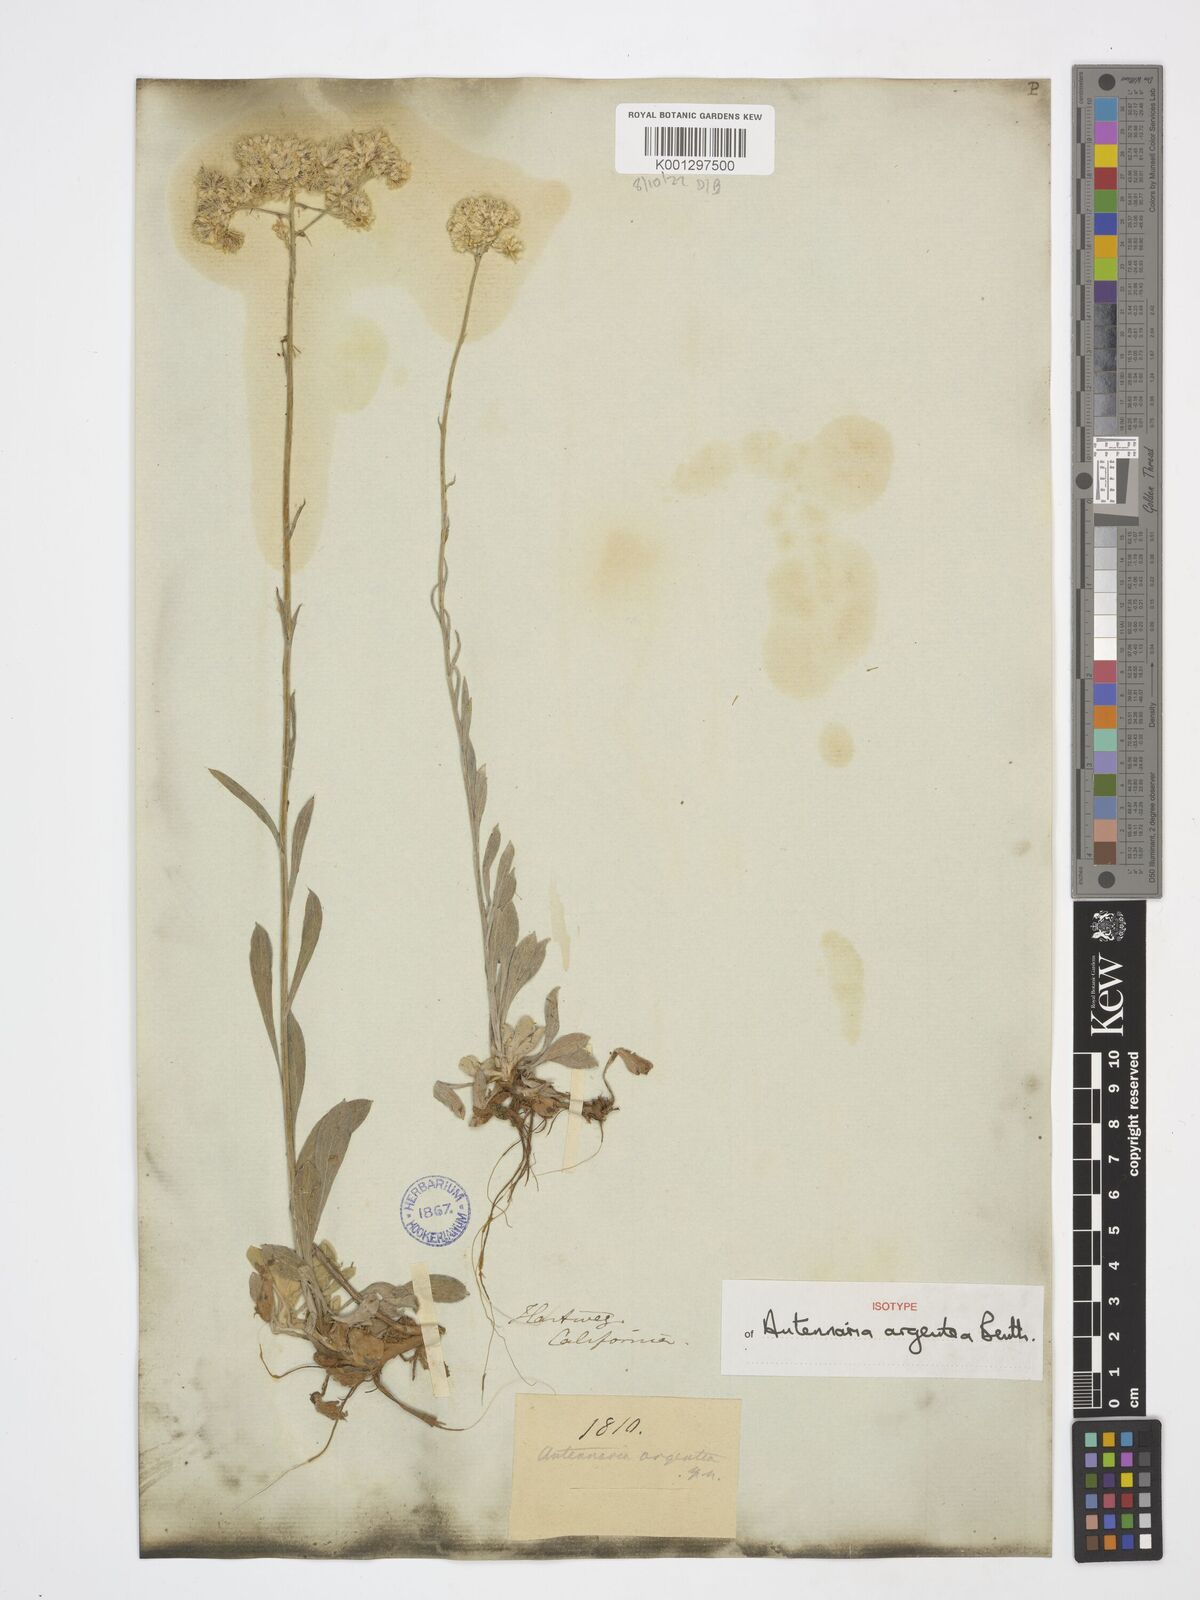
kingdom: Plantae
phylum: Tracheophyta
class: Magnoliopsida
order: Asterales
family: Asteraceae
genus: Antennaria
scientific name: Antennaria argentea
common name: Silver pussytoes
